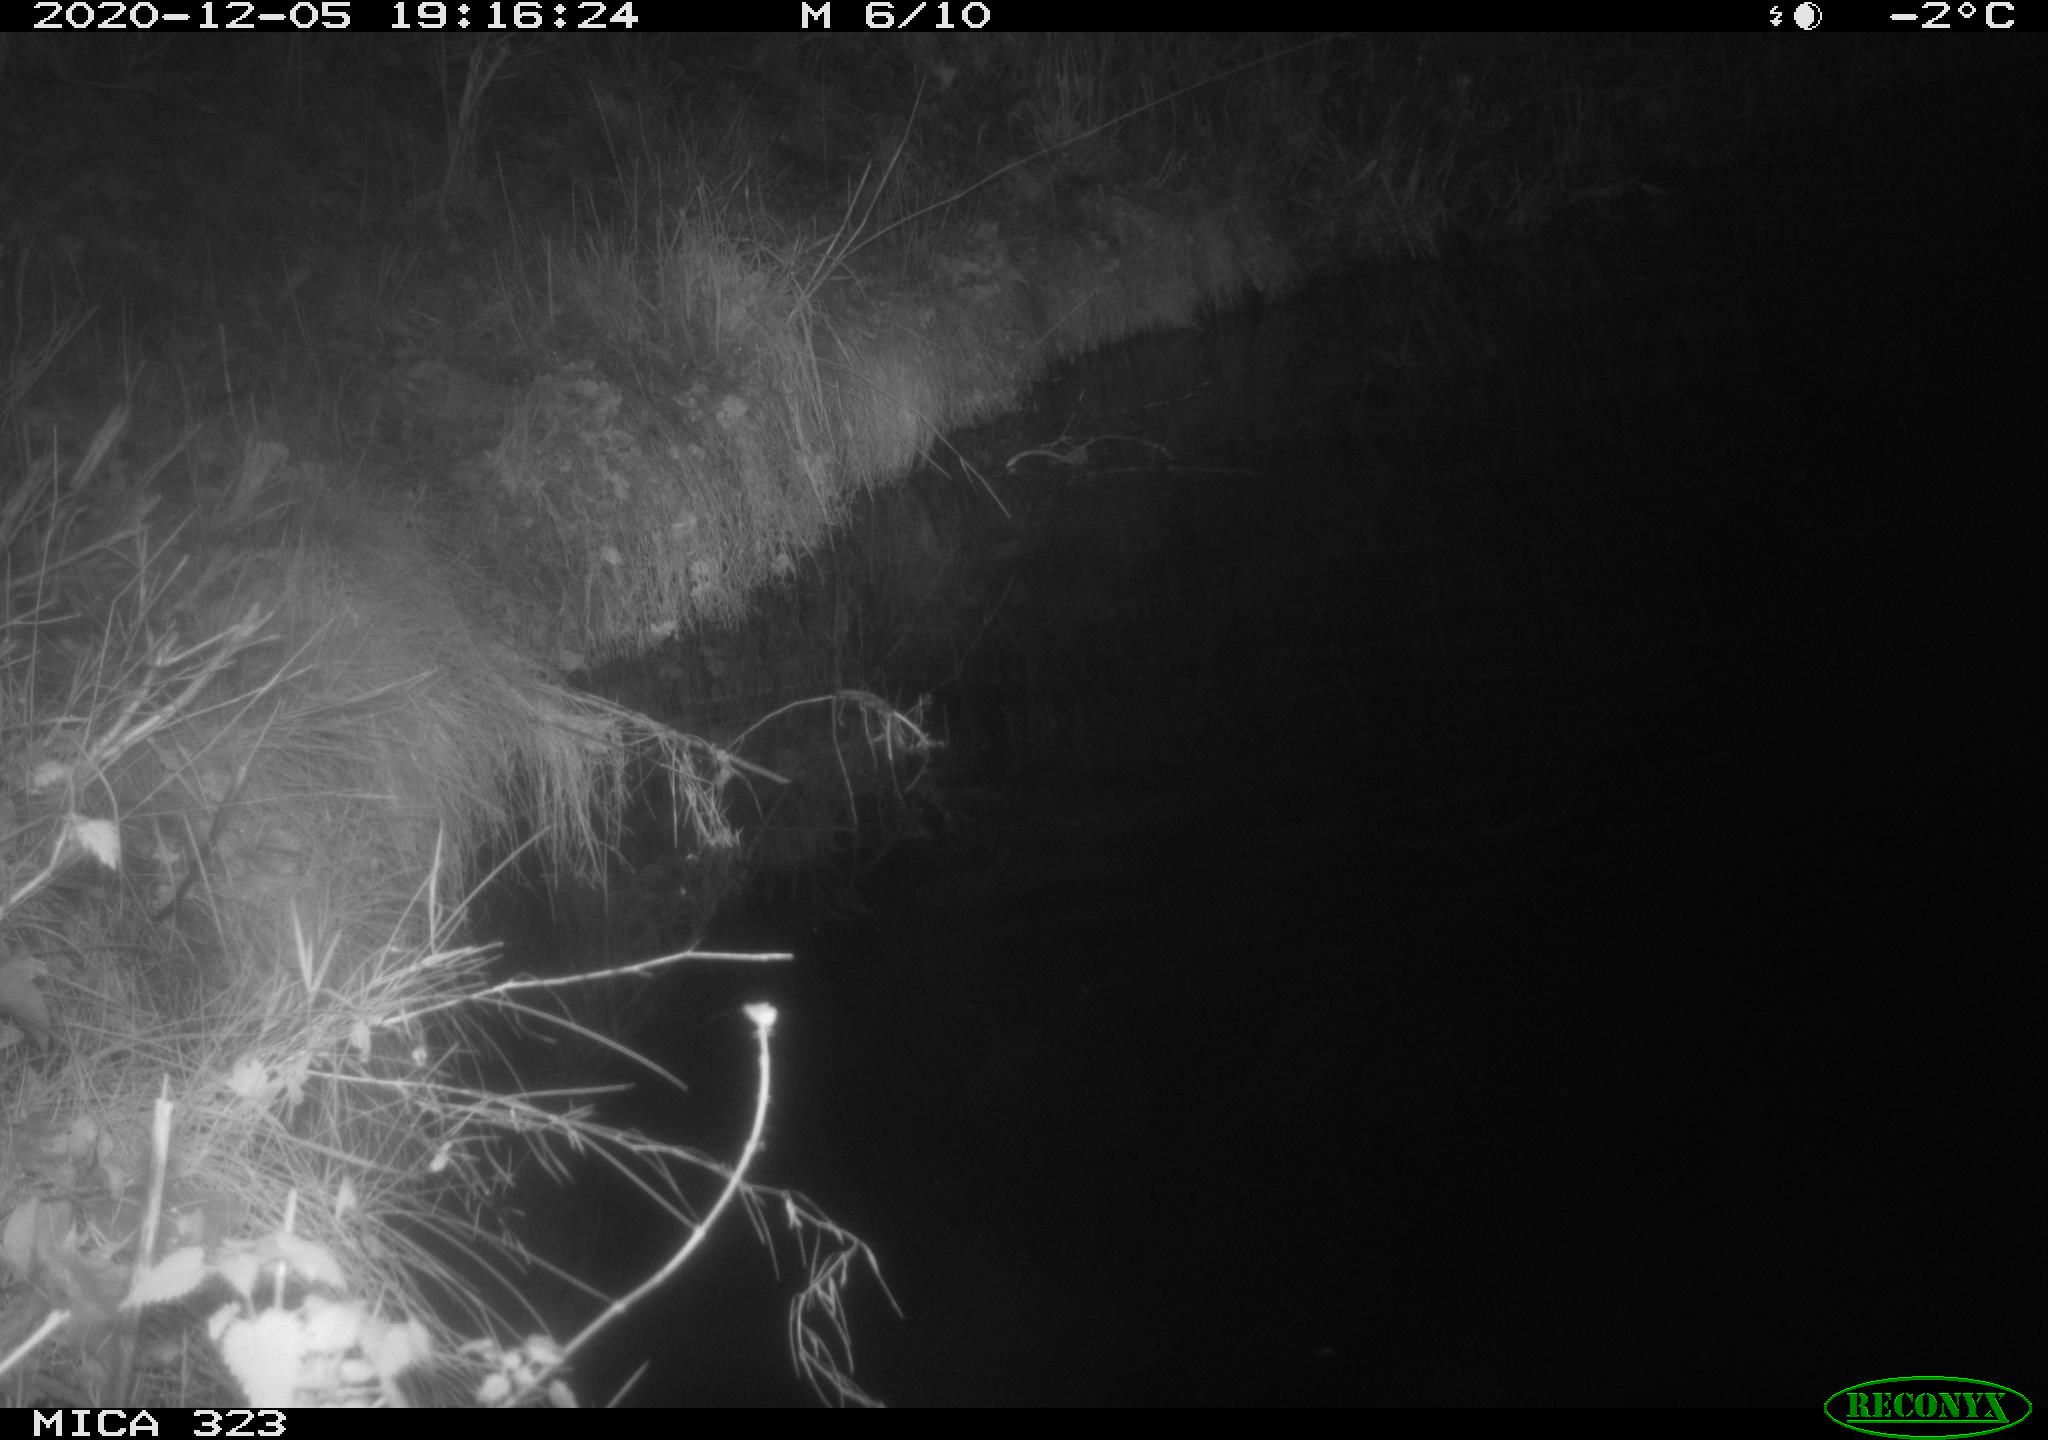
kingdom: Animalia
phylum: Chordata
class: Mammalia
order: Rodentia
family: Myocastoridae
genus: Myocastor
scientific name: Myocastor coypus
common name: Coypu
